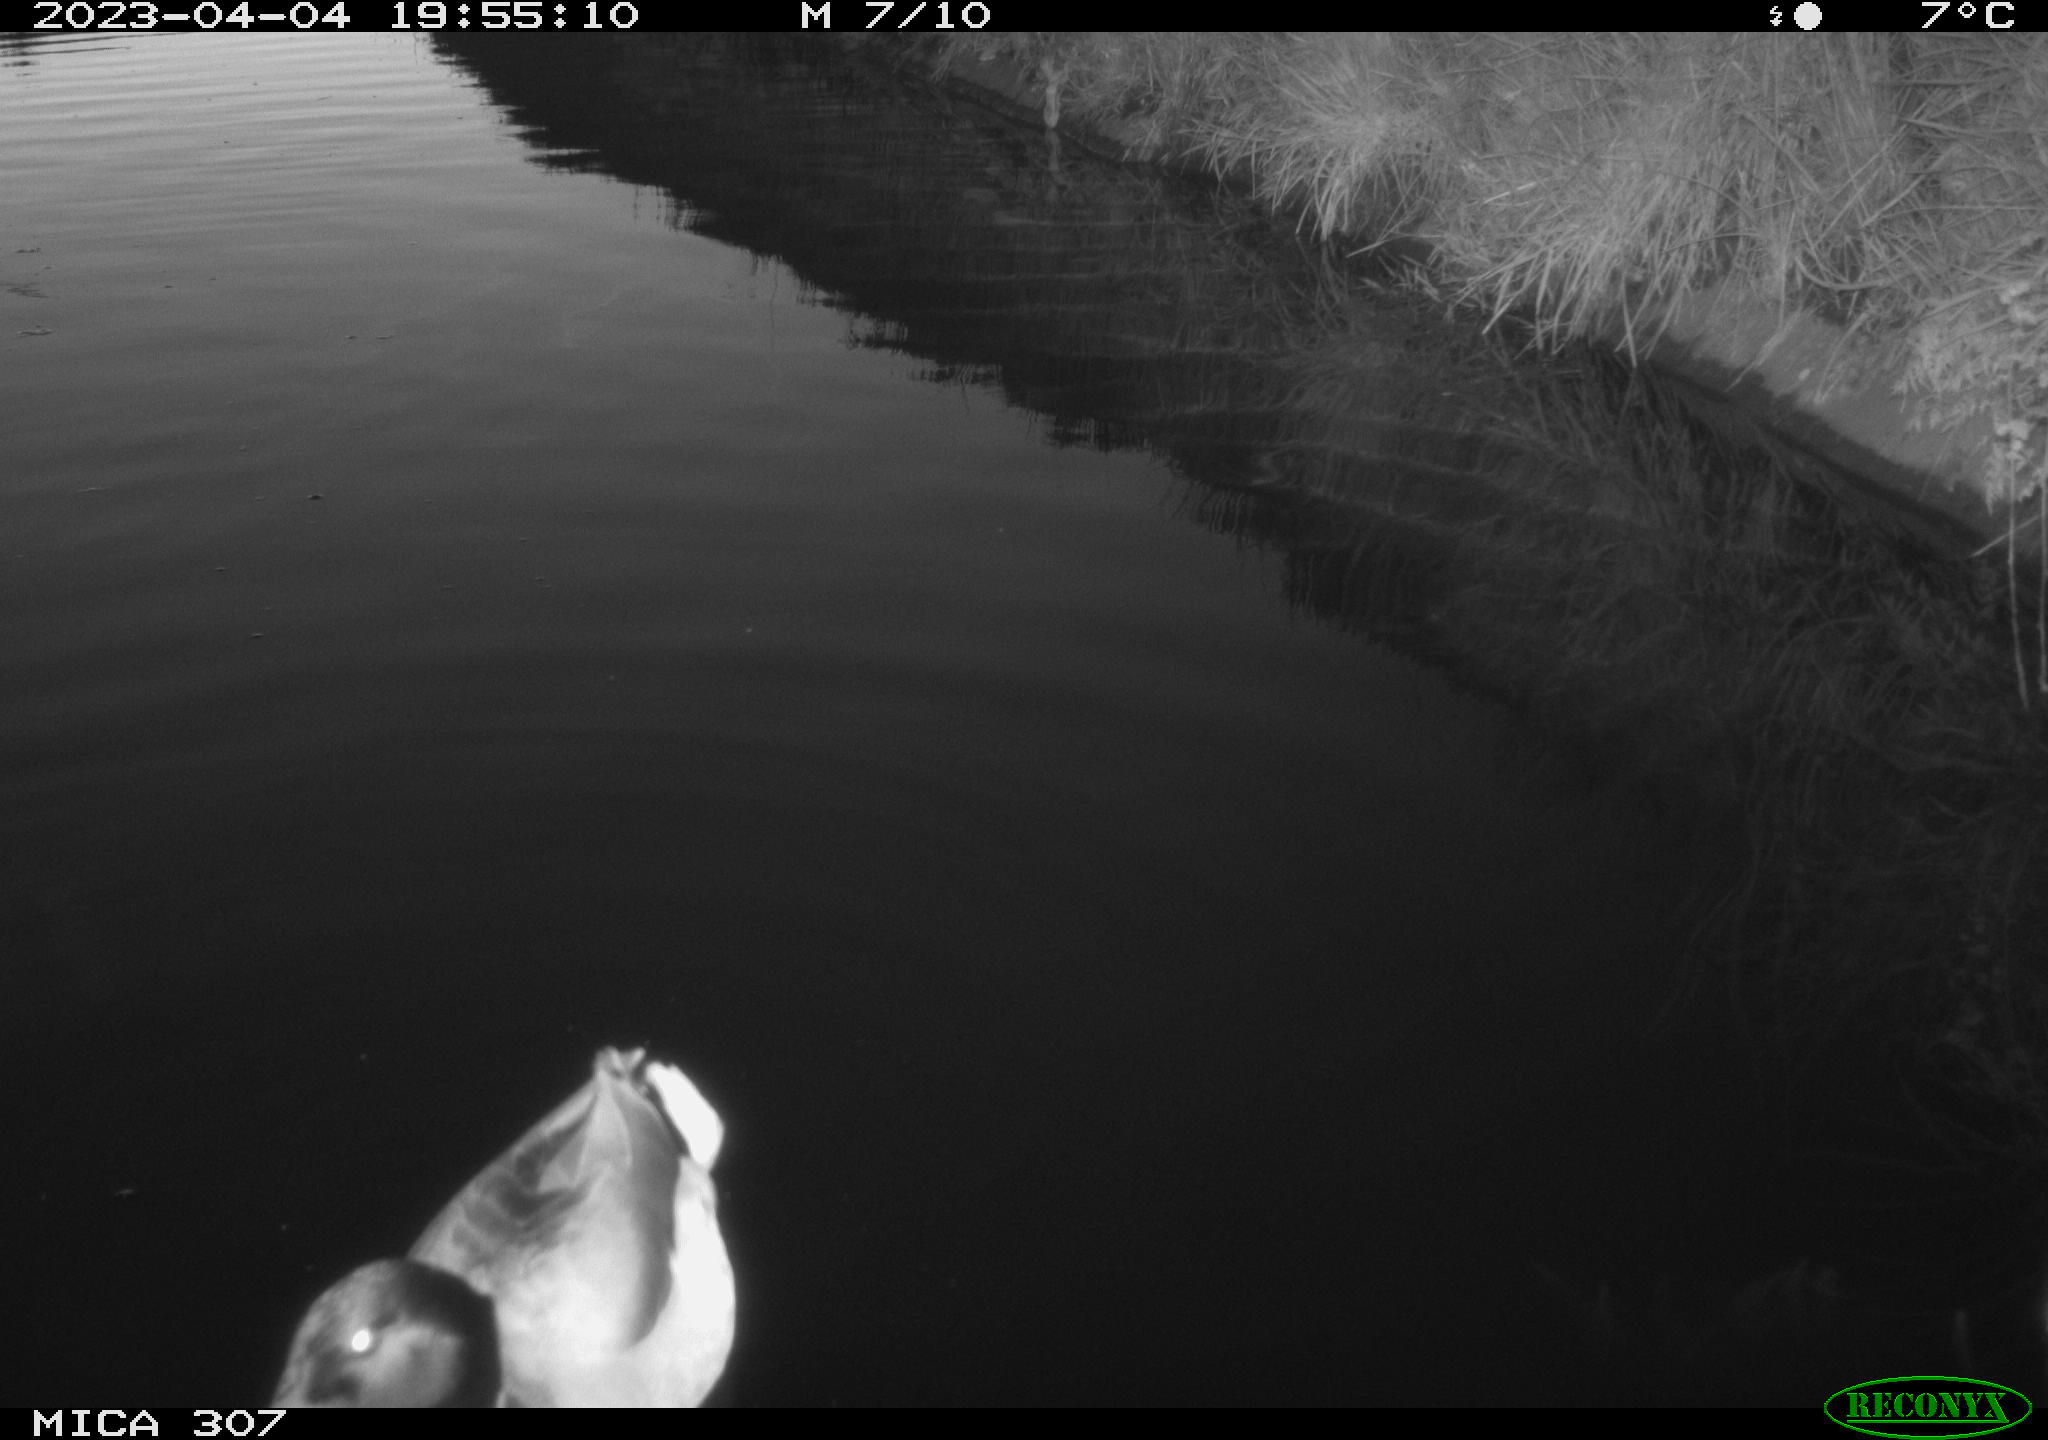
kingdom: Animalia
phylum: Chordata
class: Aves
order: Anseriformes
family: Anatidae
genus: Anas
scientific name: Anas
